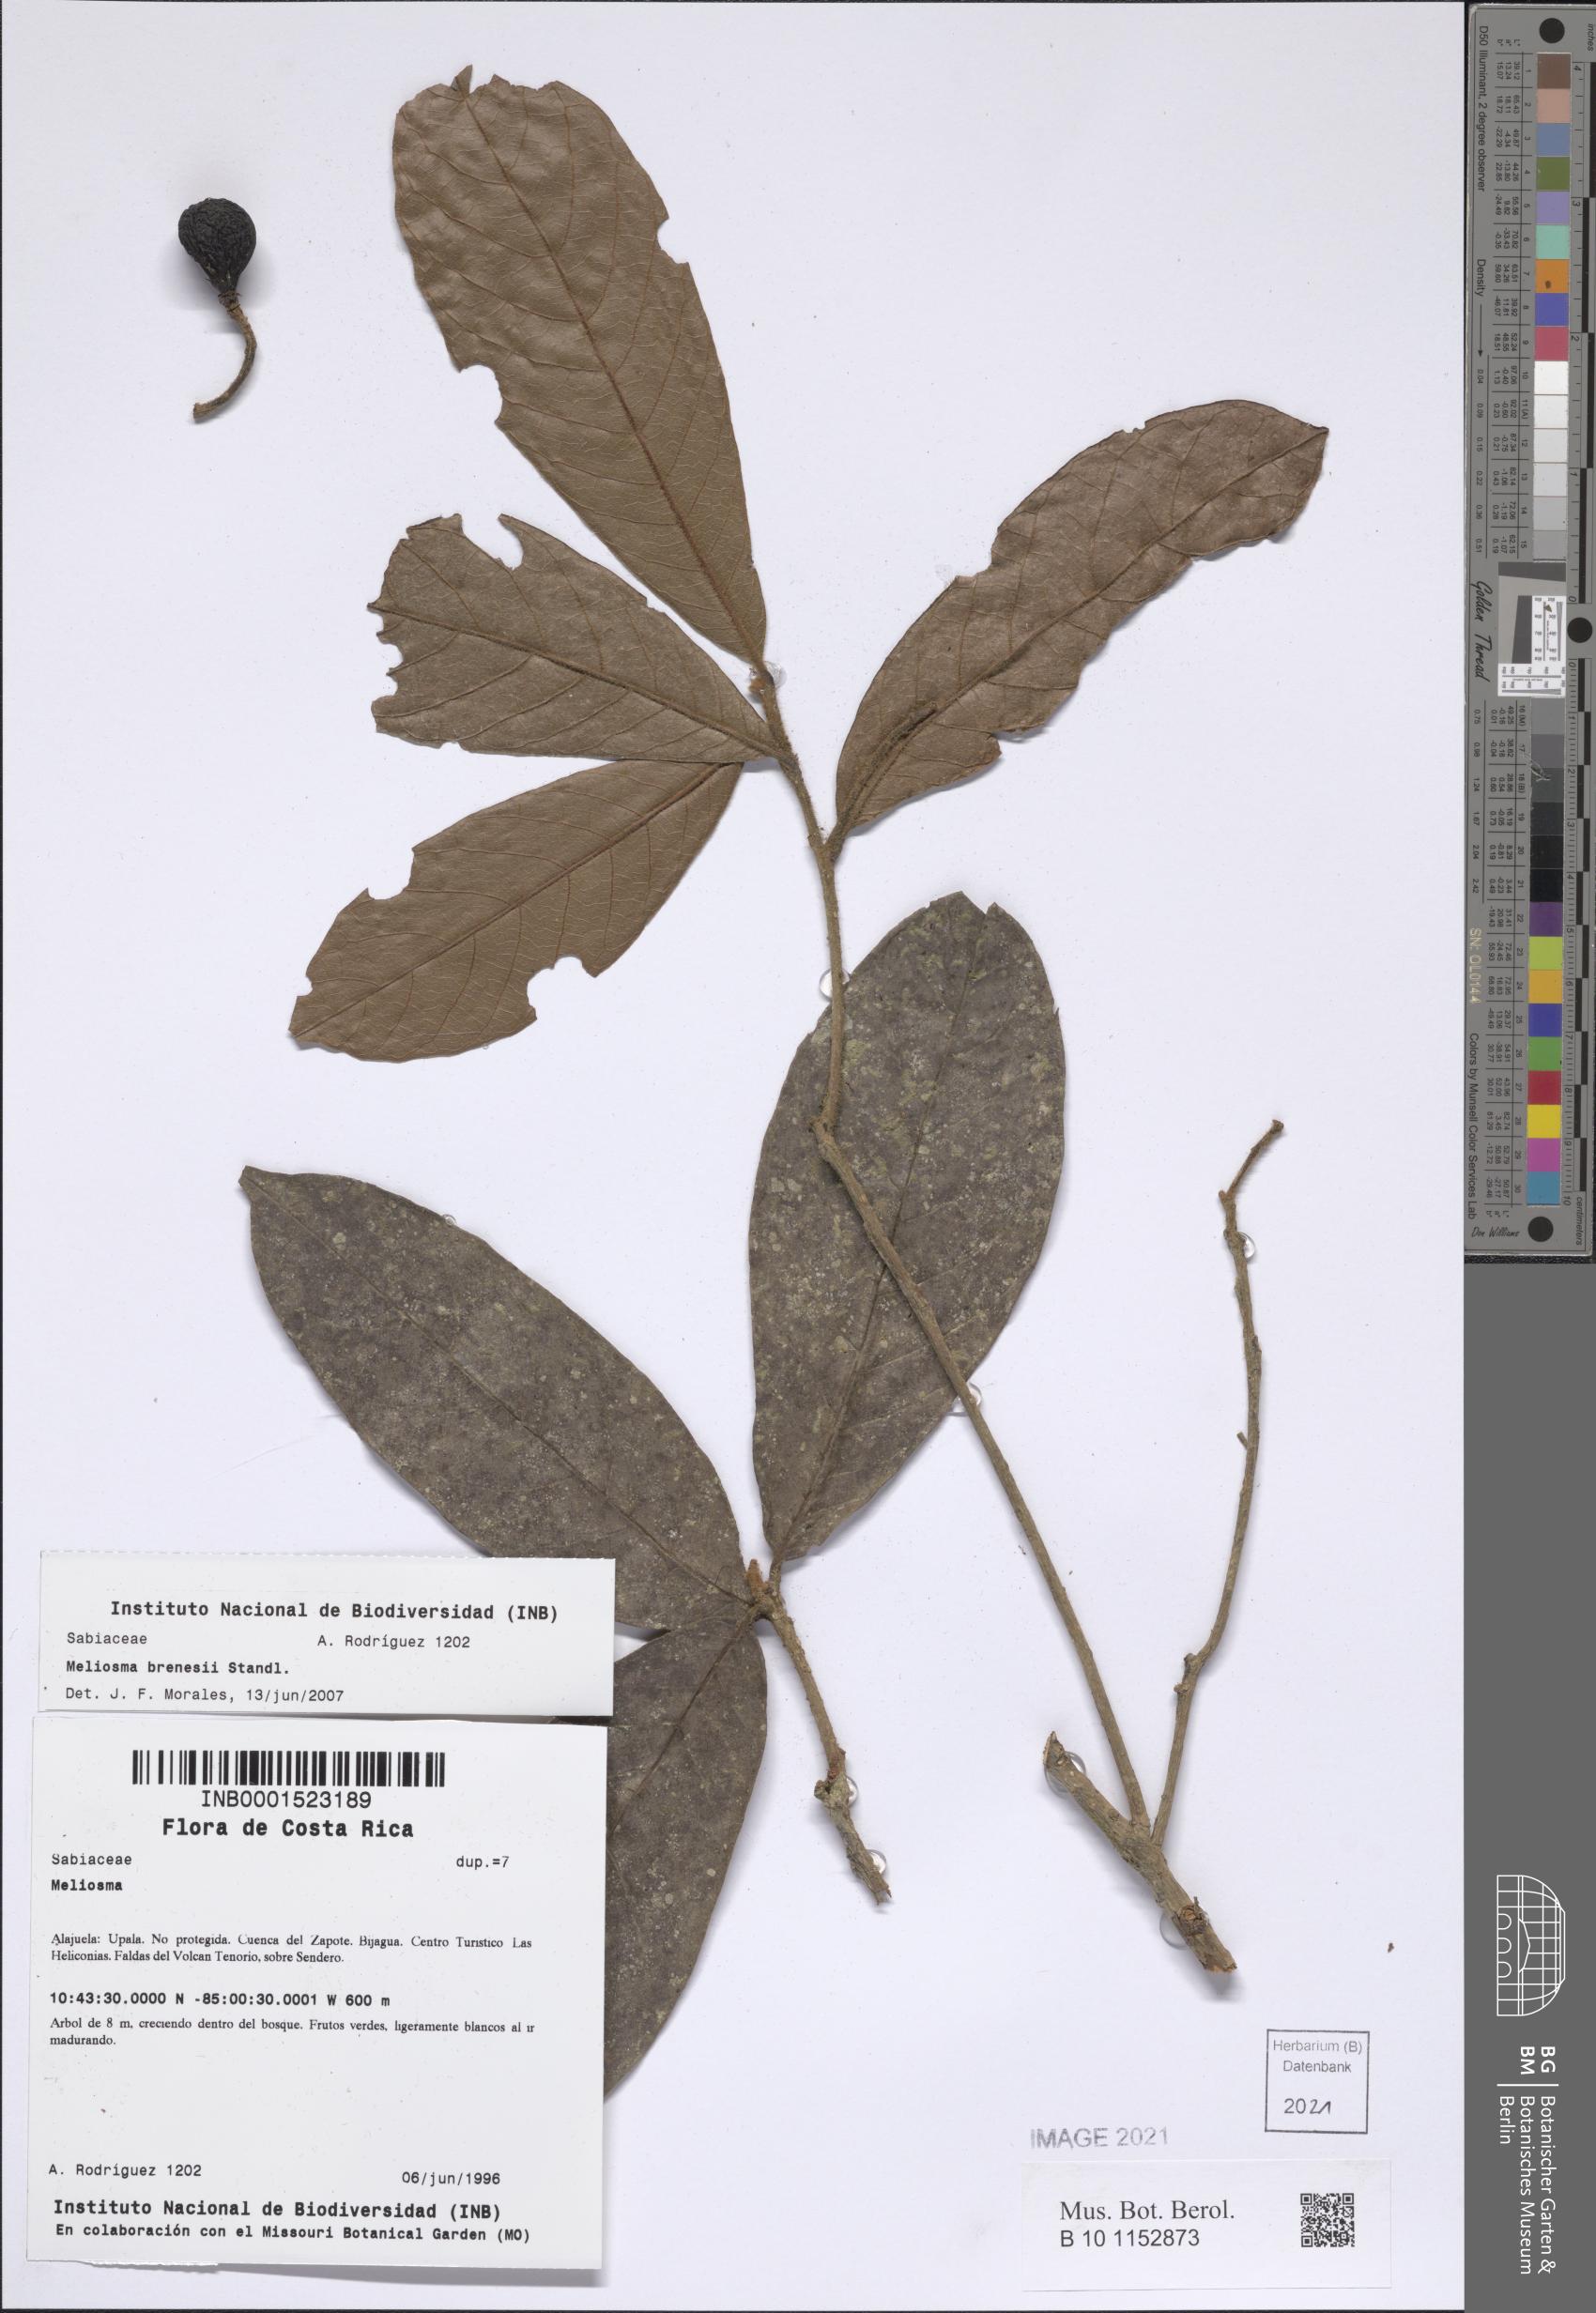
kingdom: Plantae
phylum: Tracheophyta
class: Magnoliopsida
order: Proteales
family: Sabiaceae
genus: Meliosma
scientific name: Meliosma brenesii
